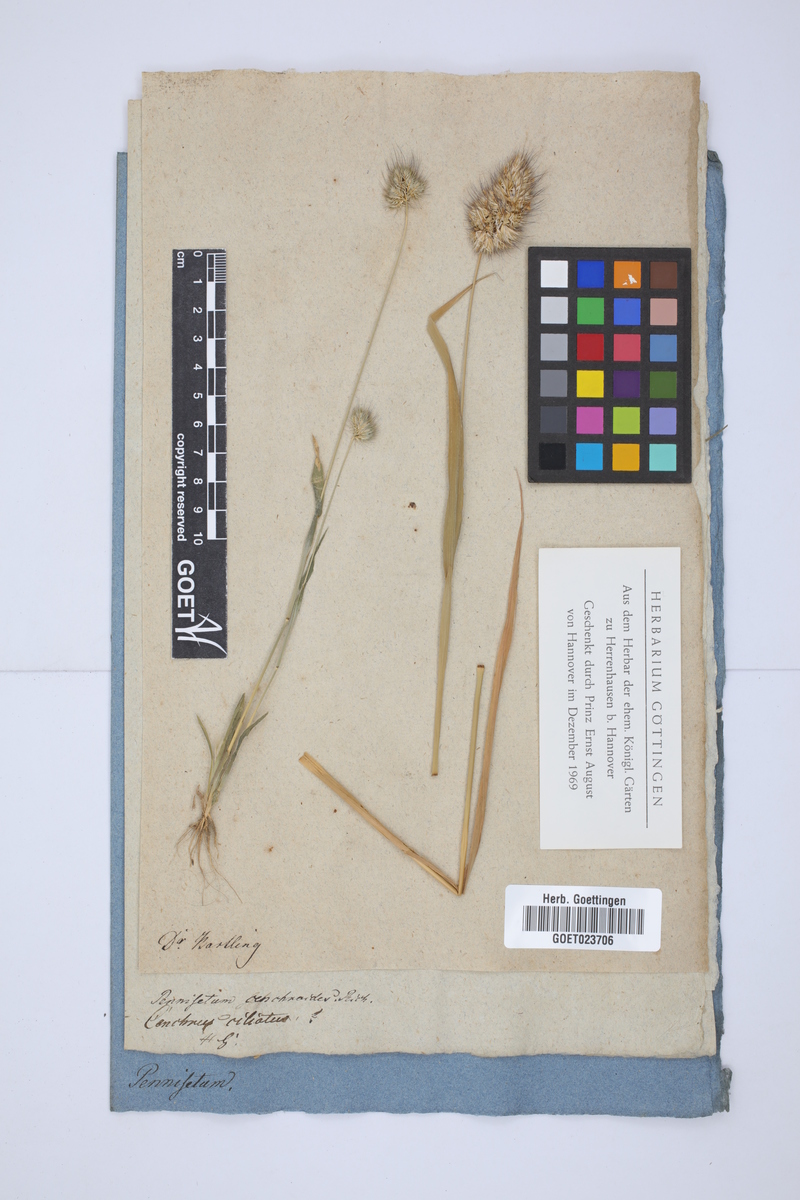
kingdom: Plantae
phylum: Tracheophyta
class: Liliopsida
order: Poales
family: Poaceae
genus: Cenchrus
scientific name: Cenchrus ciliaris
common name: Buffelgrass
